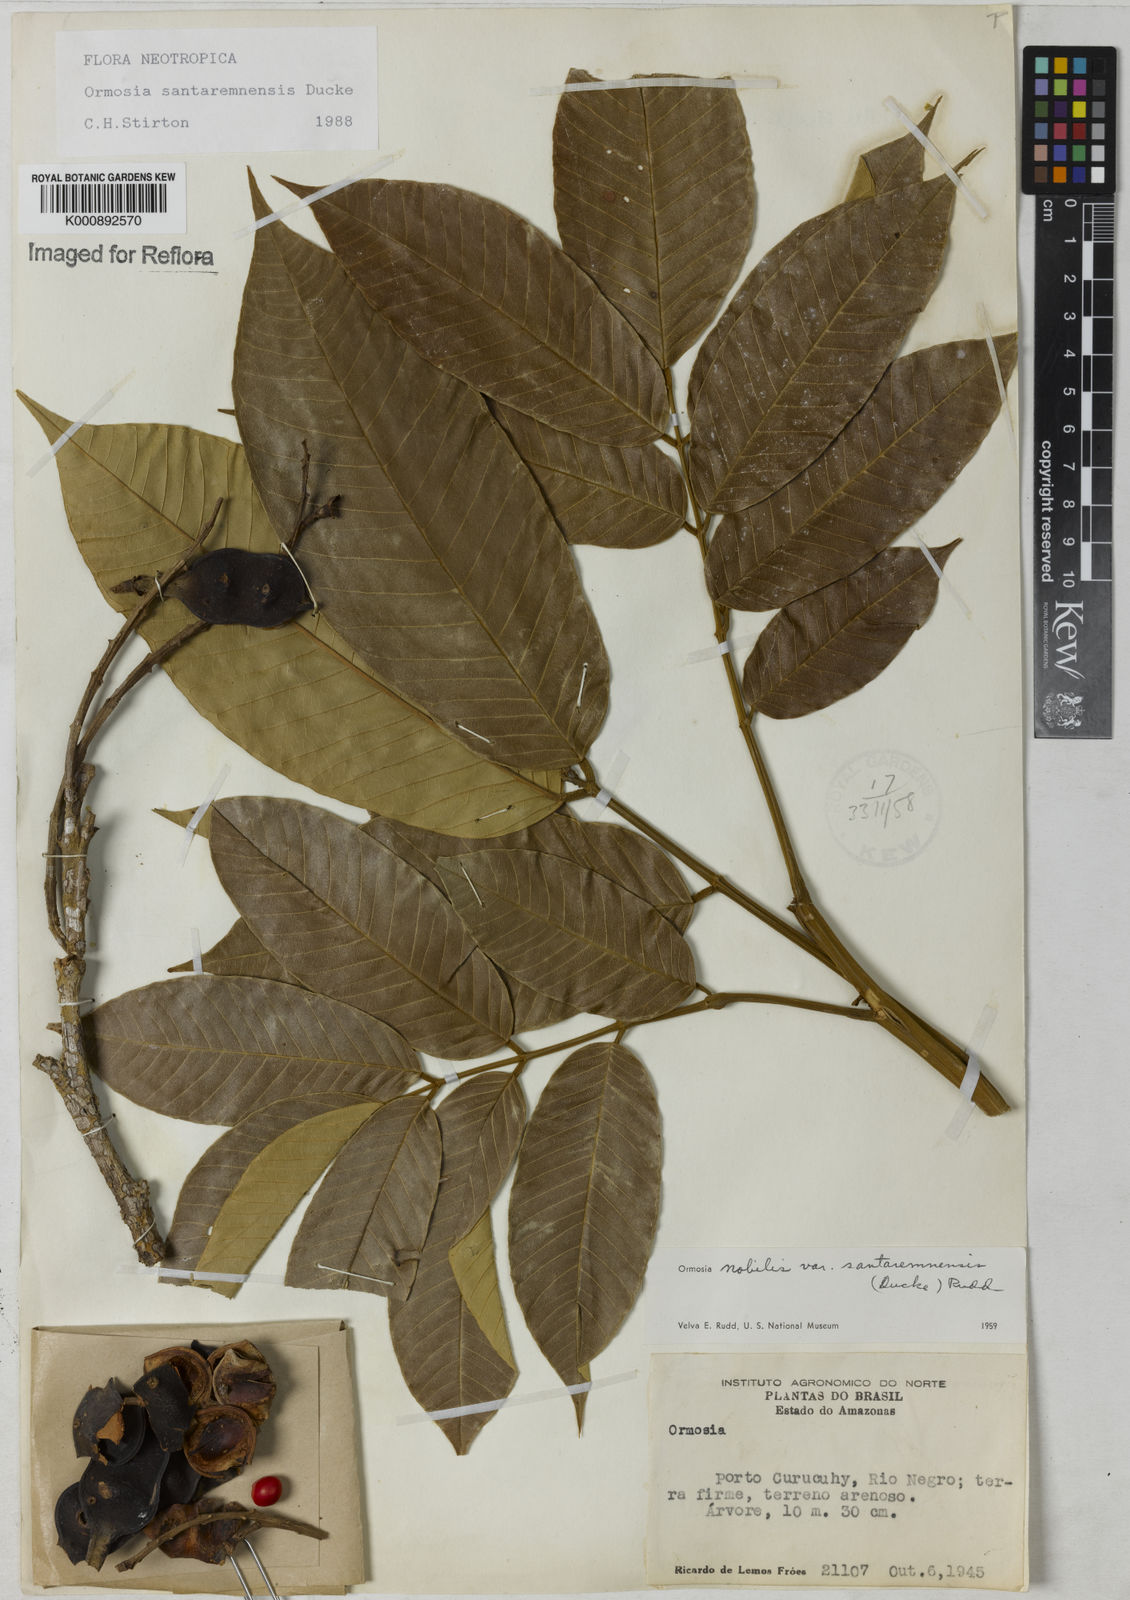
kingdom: Plantae
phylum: Tracheophyta
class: Magnoliopsida
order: Fabales
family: Fabaceae
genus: Ormosia
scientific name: Ormosia santaremnensis
